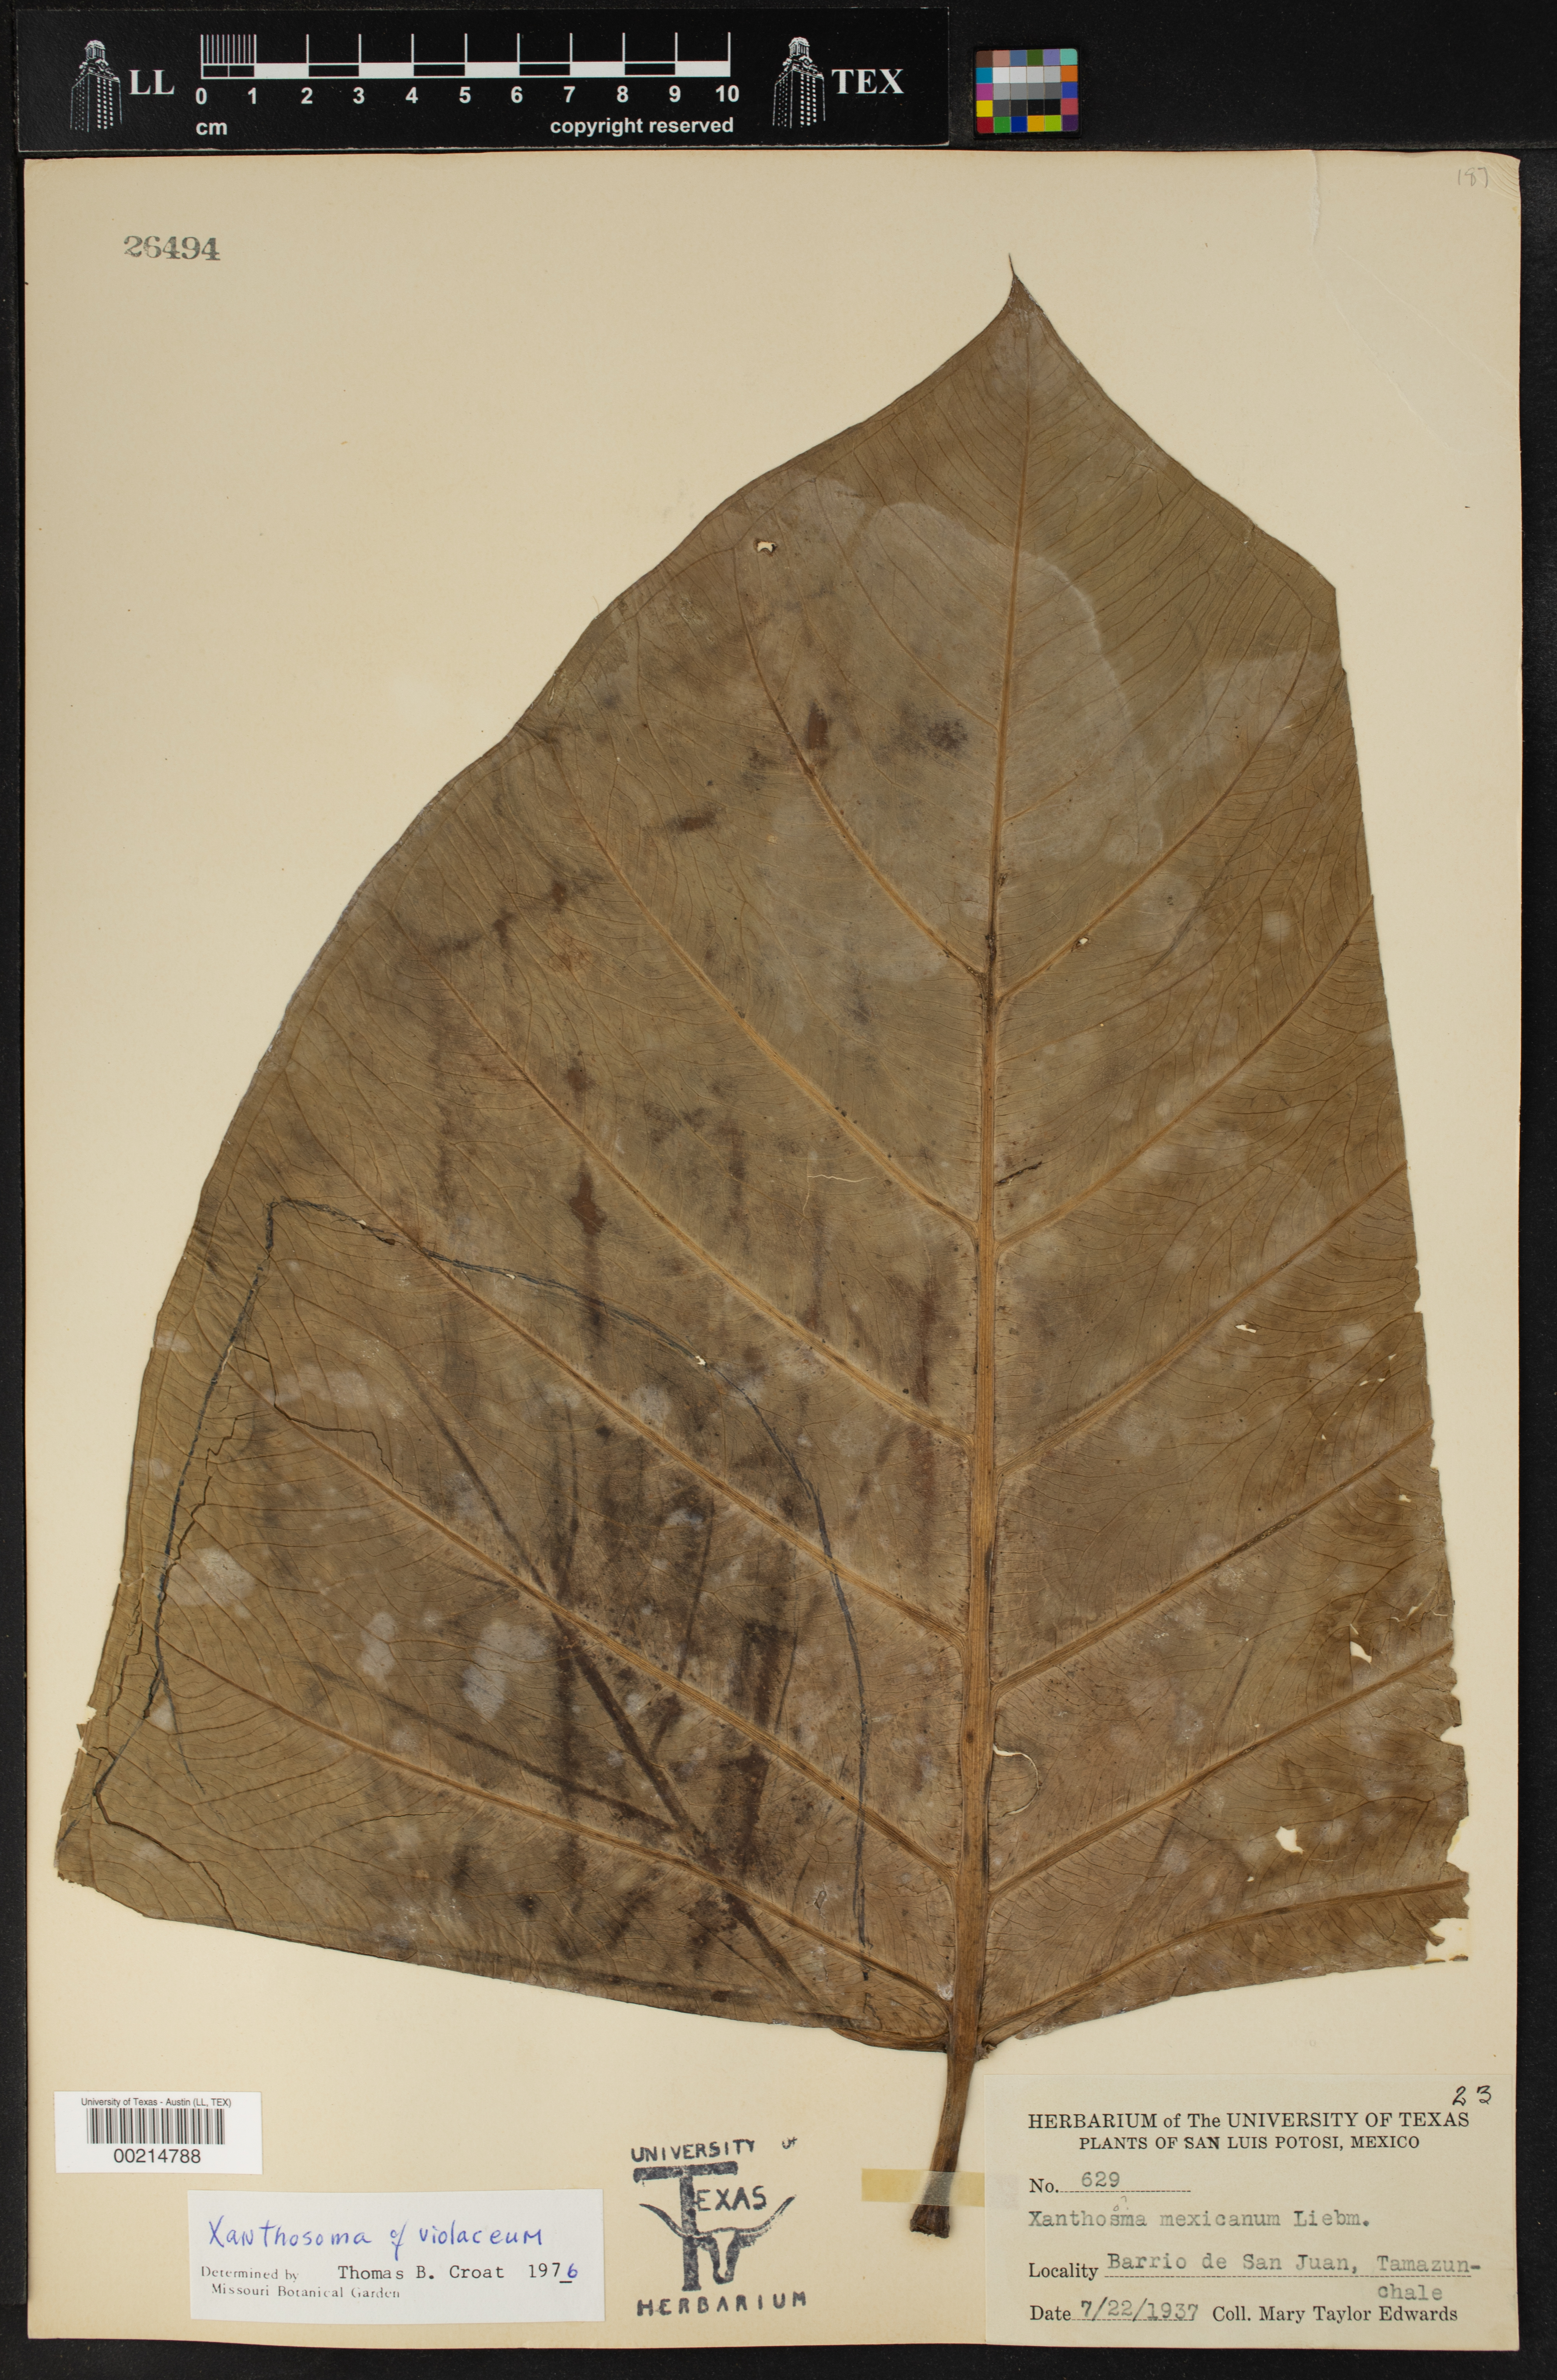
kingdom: Plantae
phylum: Tracheophyta
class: Liliopsida
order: Alismatales
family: Araceae
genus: Xanthosoma
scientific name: Xanthosoma mexicanum
